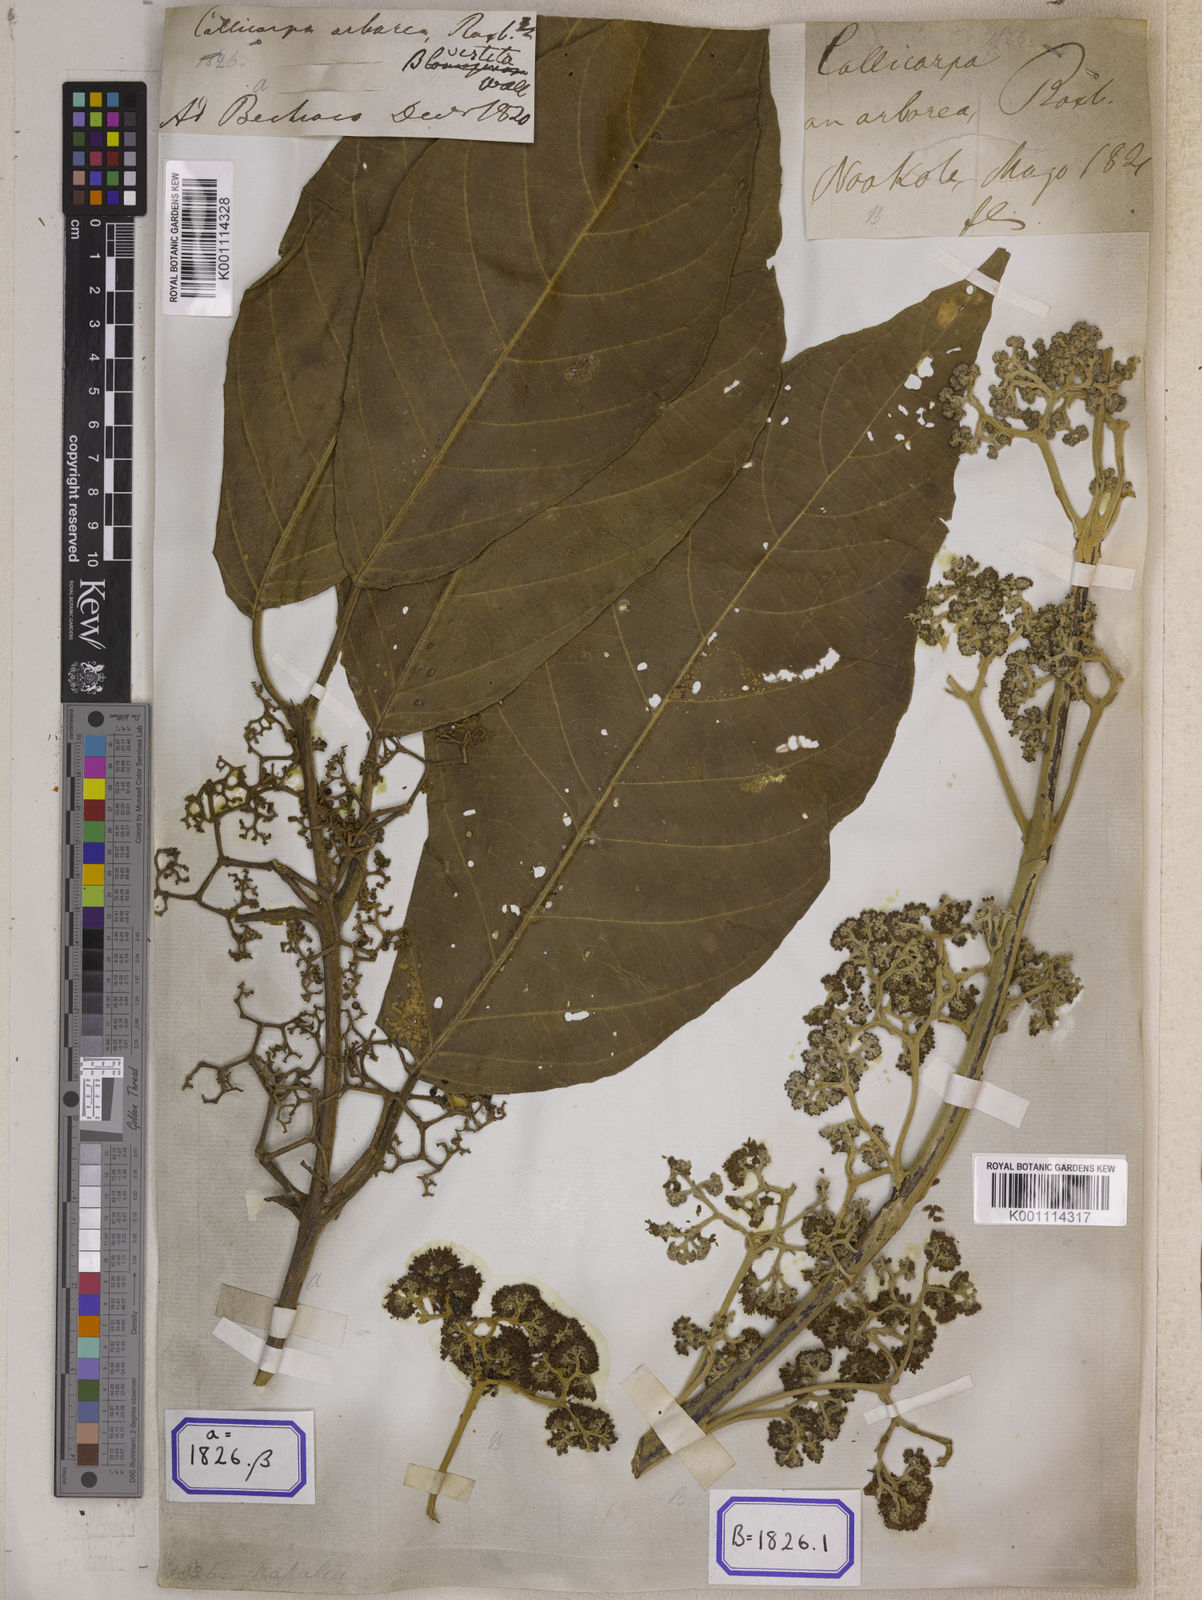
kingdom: Plantae
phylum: Tracheophyta
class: Magnoliopsida
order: Lamiales
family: Lamiaceae
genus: Callicarpa
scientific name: Callicarpa arborea
